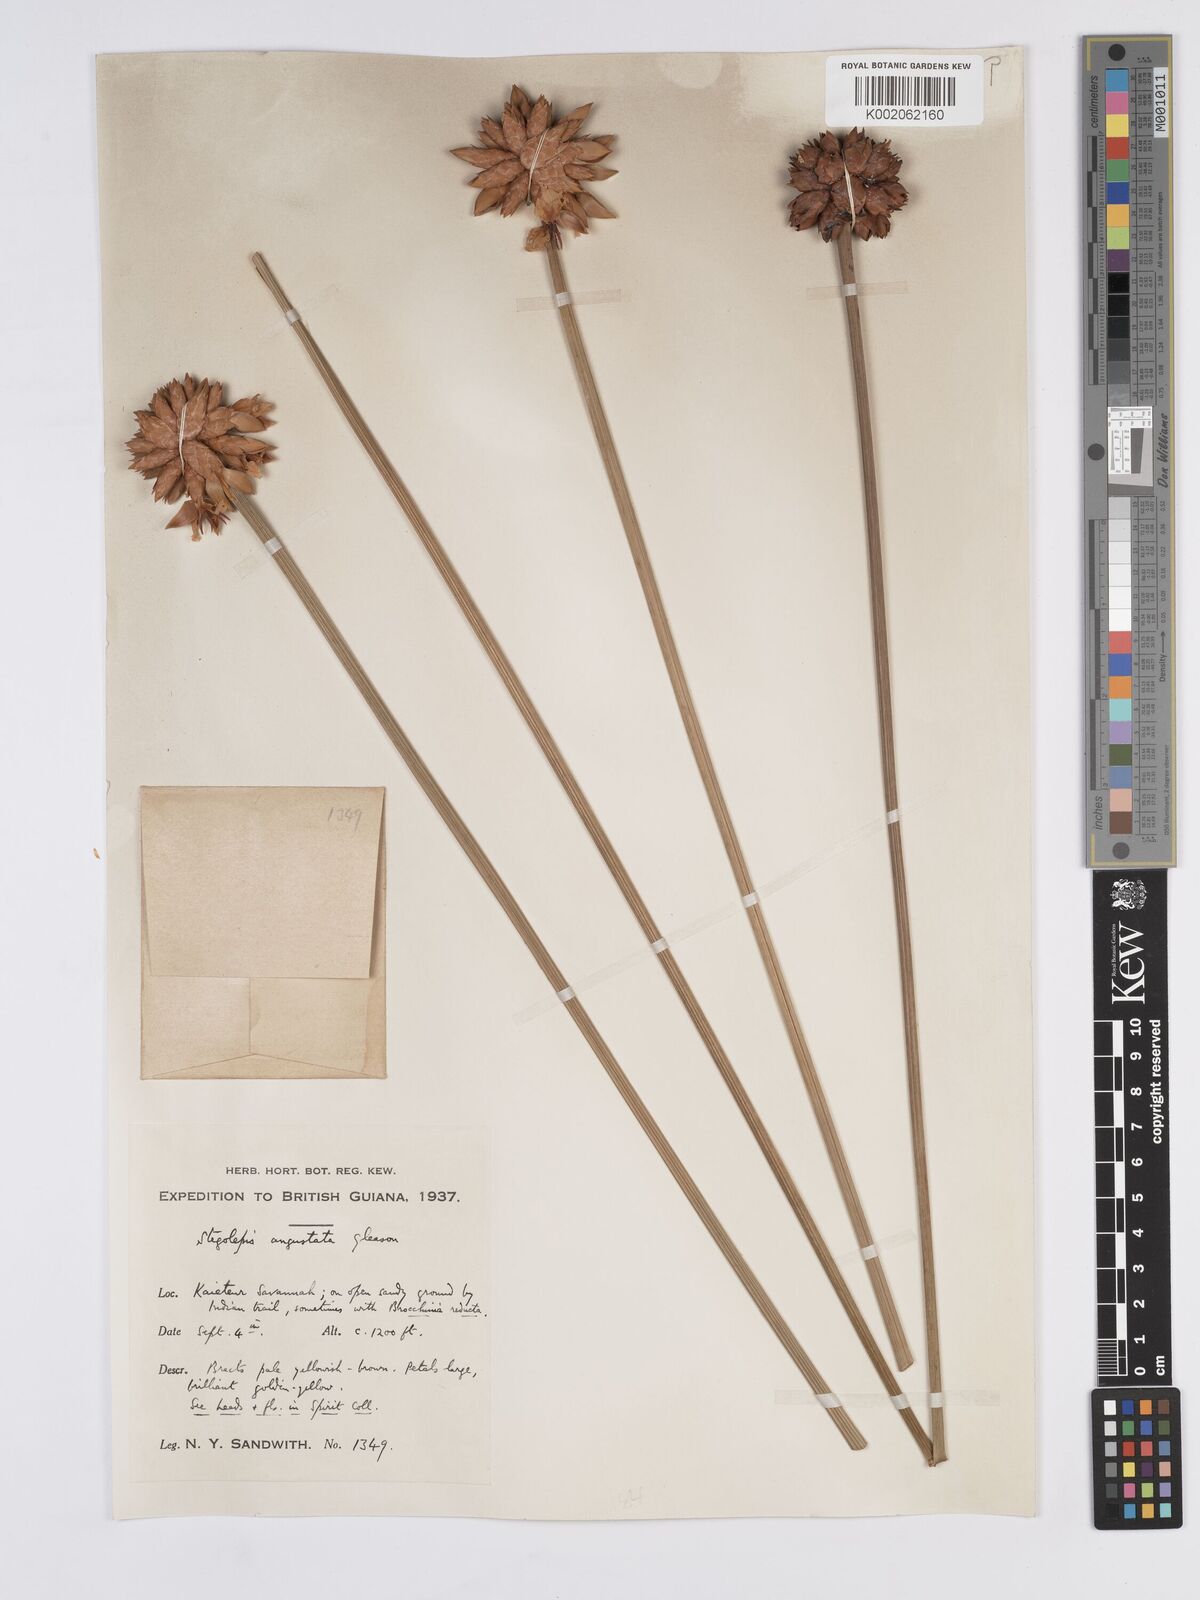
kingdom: Plantae
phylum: Tracheophyta
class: Liliopsida
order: Poales
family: Rapateaceae
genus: Stegolepis
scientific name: Stegolepis angustata
